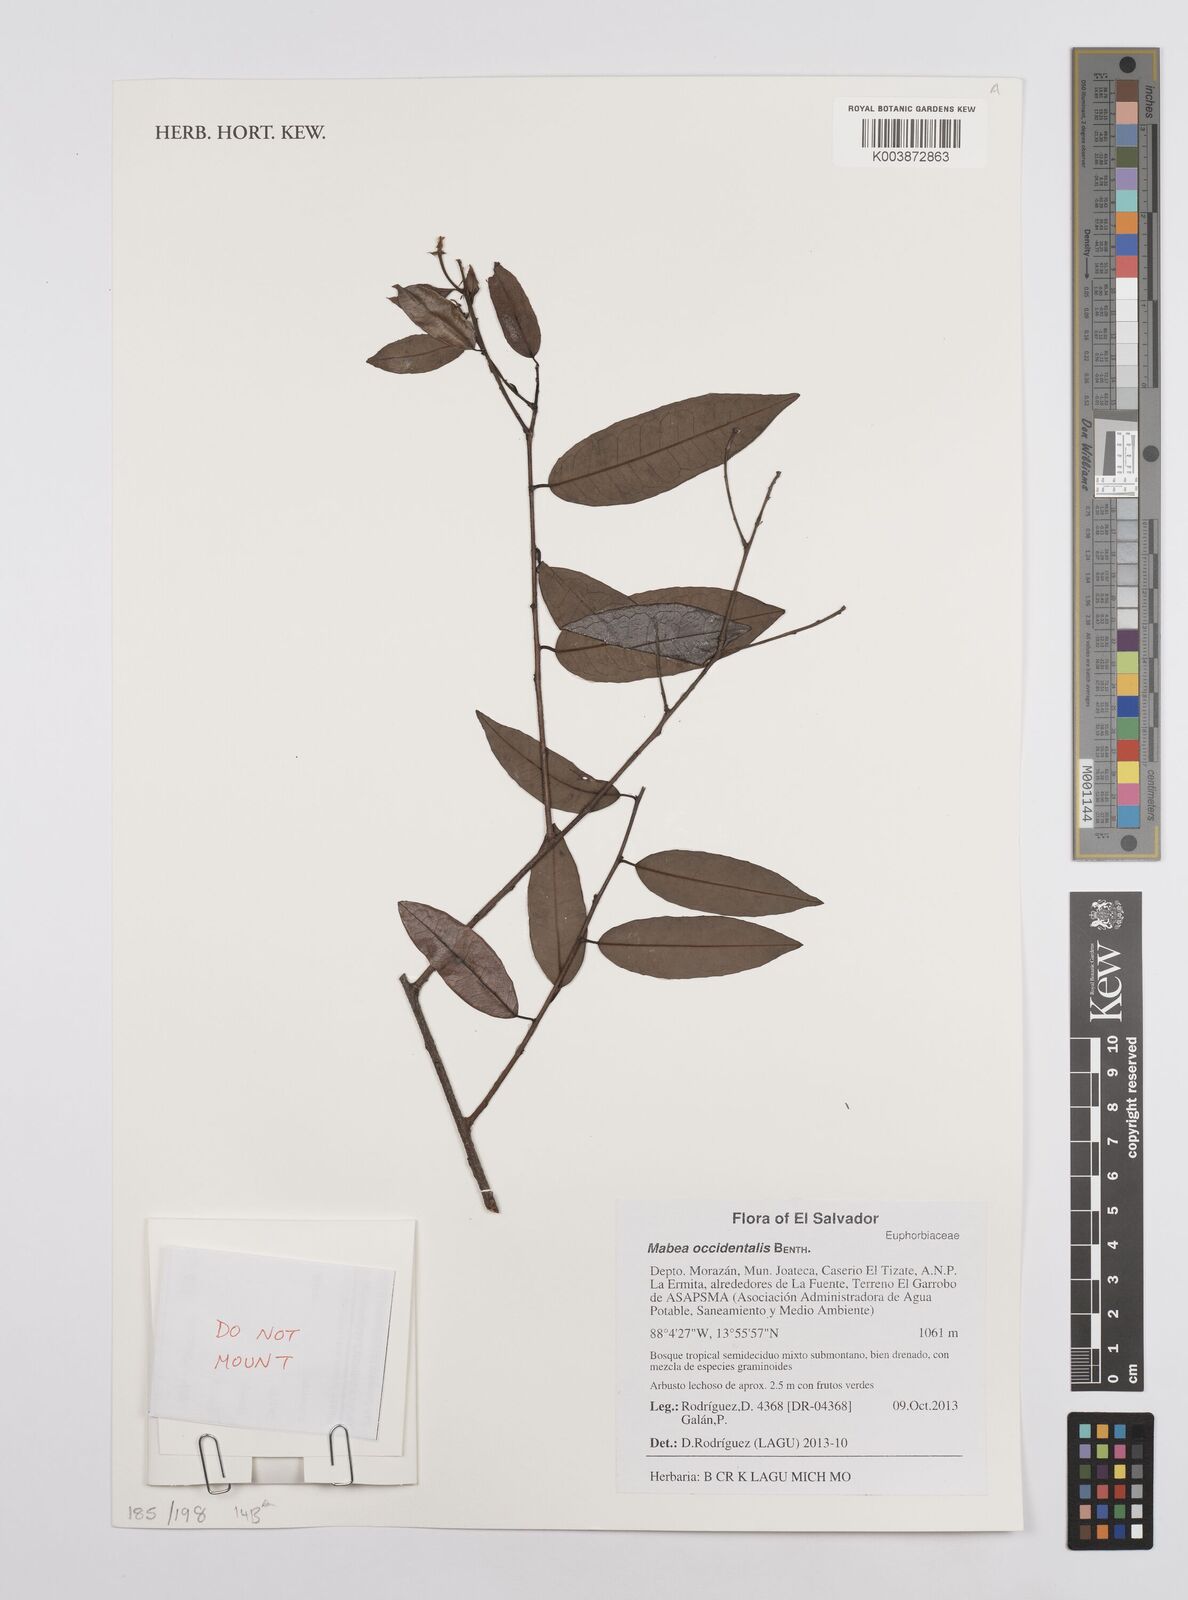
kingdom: Plantae
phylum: Tracheophyta
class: Magnoliopsida
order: Malpighiales
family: Euphorbiaceae
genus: Mabea
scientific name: Mabea occidentalis
